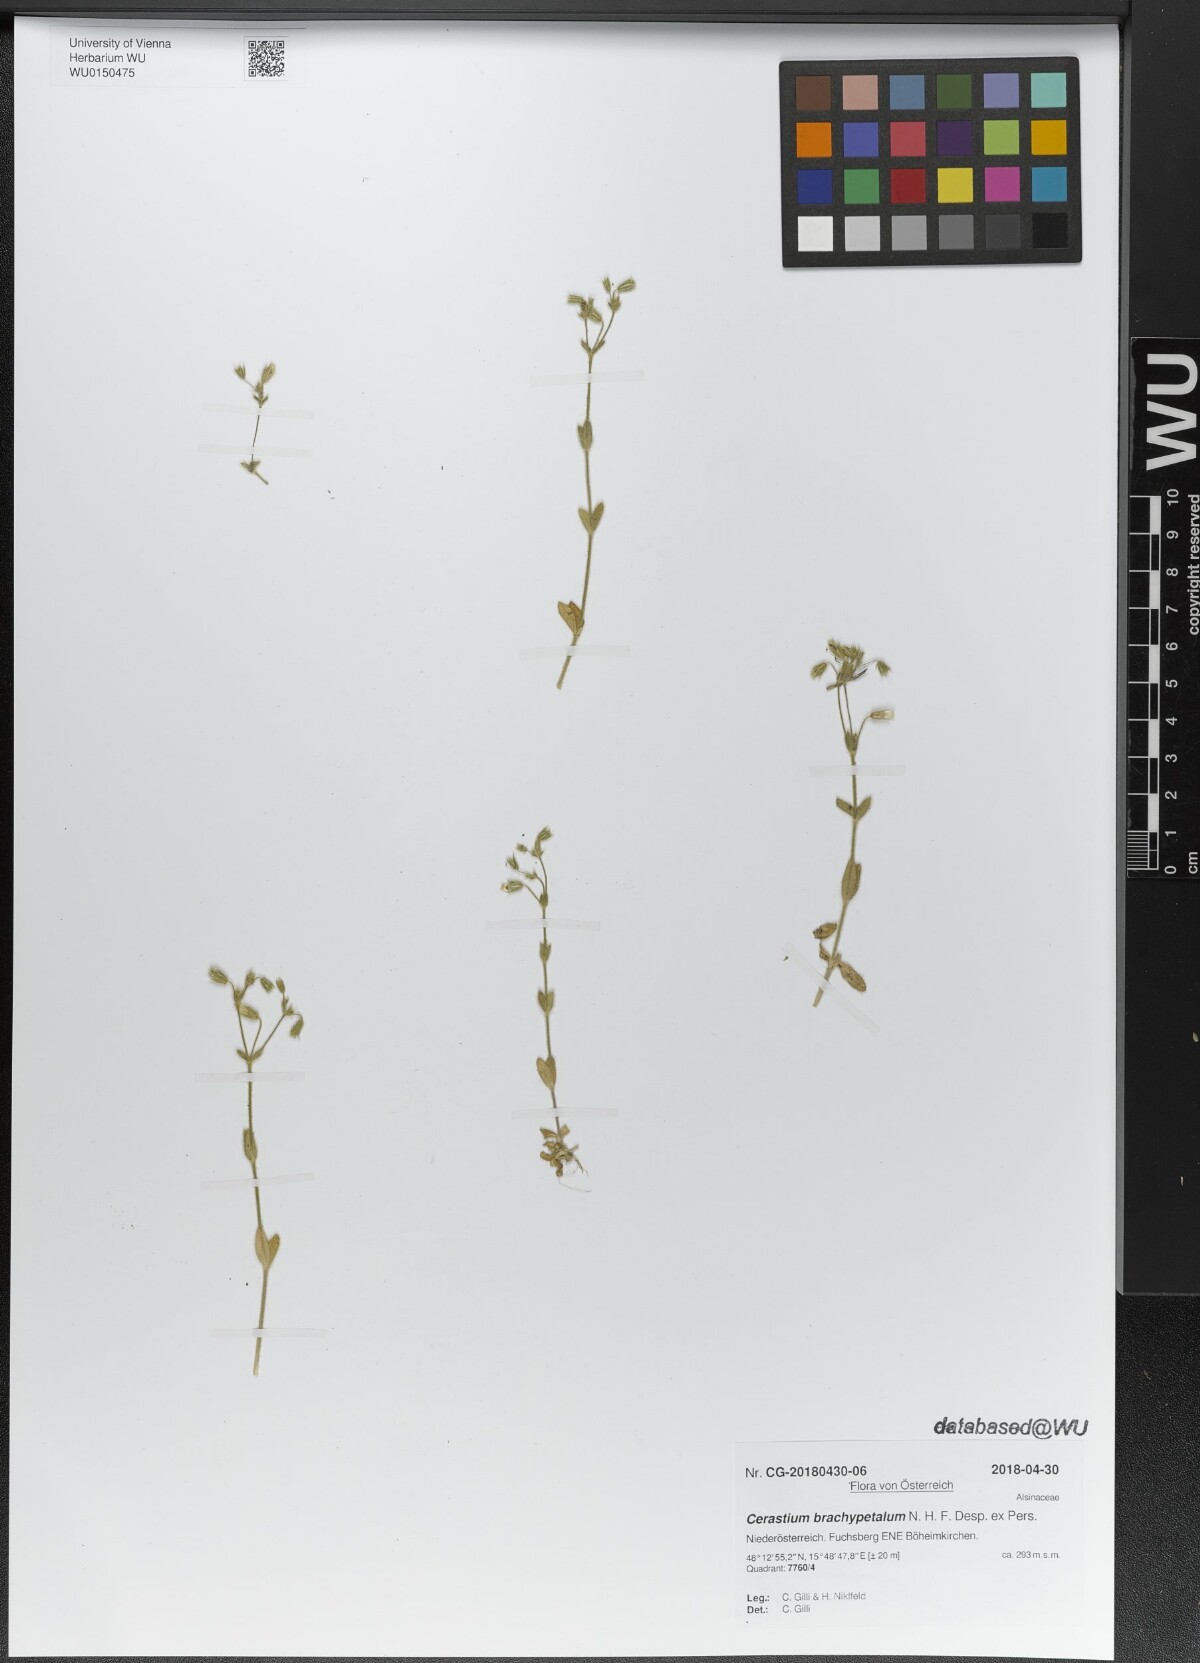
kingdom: Plantae
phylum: Tracheophyta
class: Magnoliopsida
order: Caryophyllales
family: Caryophyllaceae
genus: Cerastium
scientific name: Cerastium brachypetalum
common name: Grey mouse-ear
